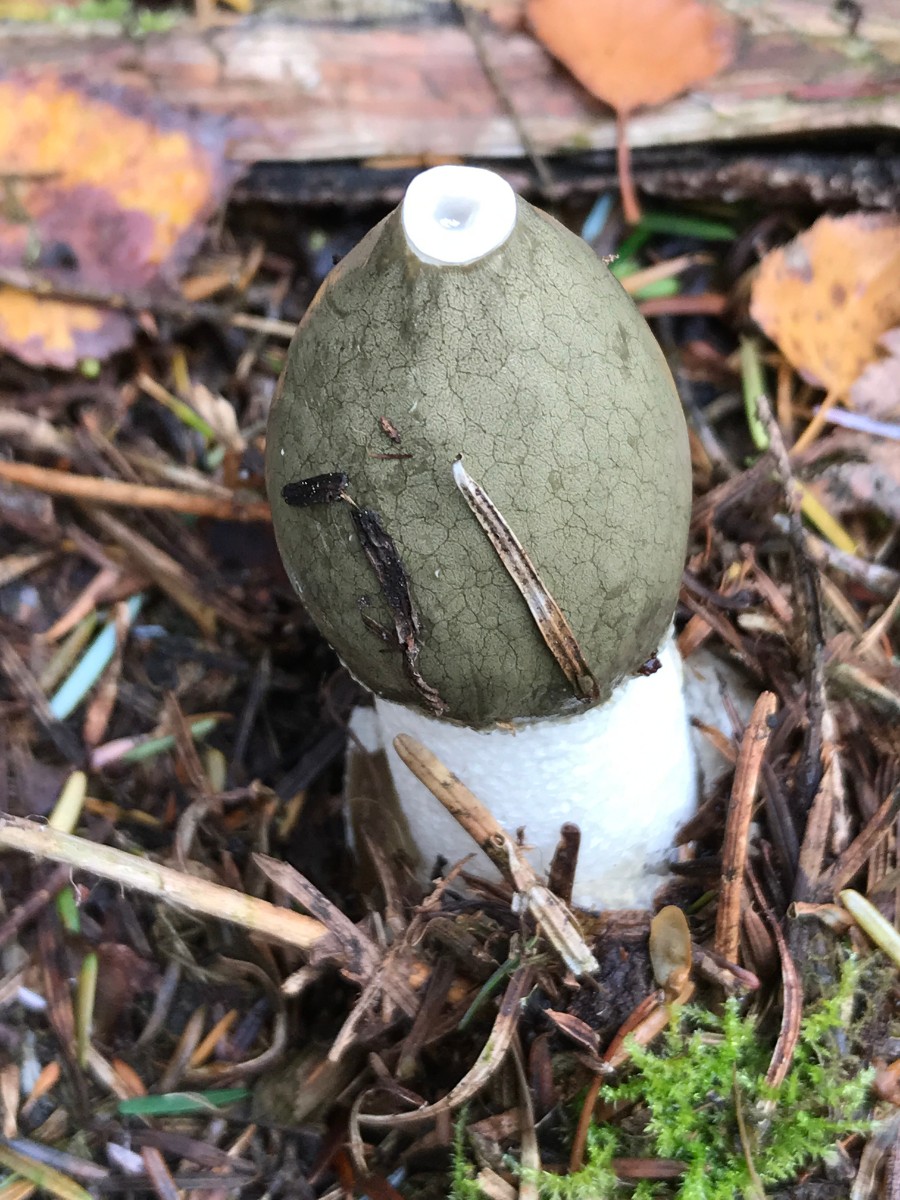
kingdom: Fungi
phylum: Basidiomycota
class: Agaricomycetes
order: Phallales
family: Phallaceae
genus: Phallus
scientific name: Phallus impudicus
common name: almindelig stinksvamp
